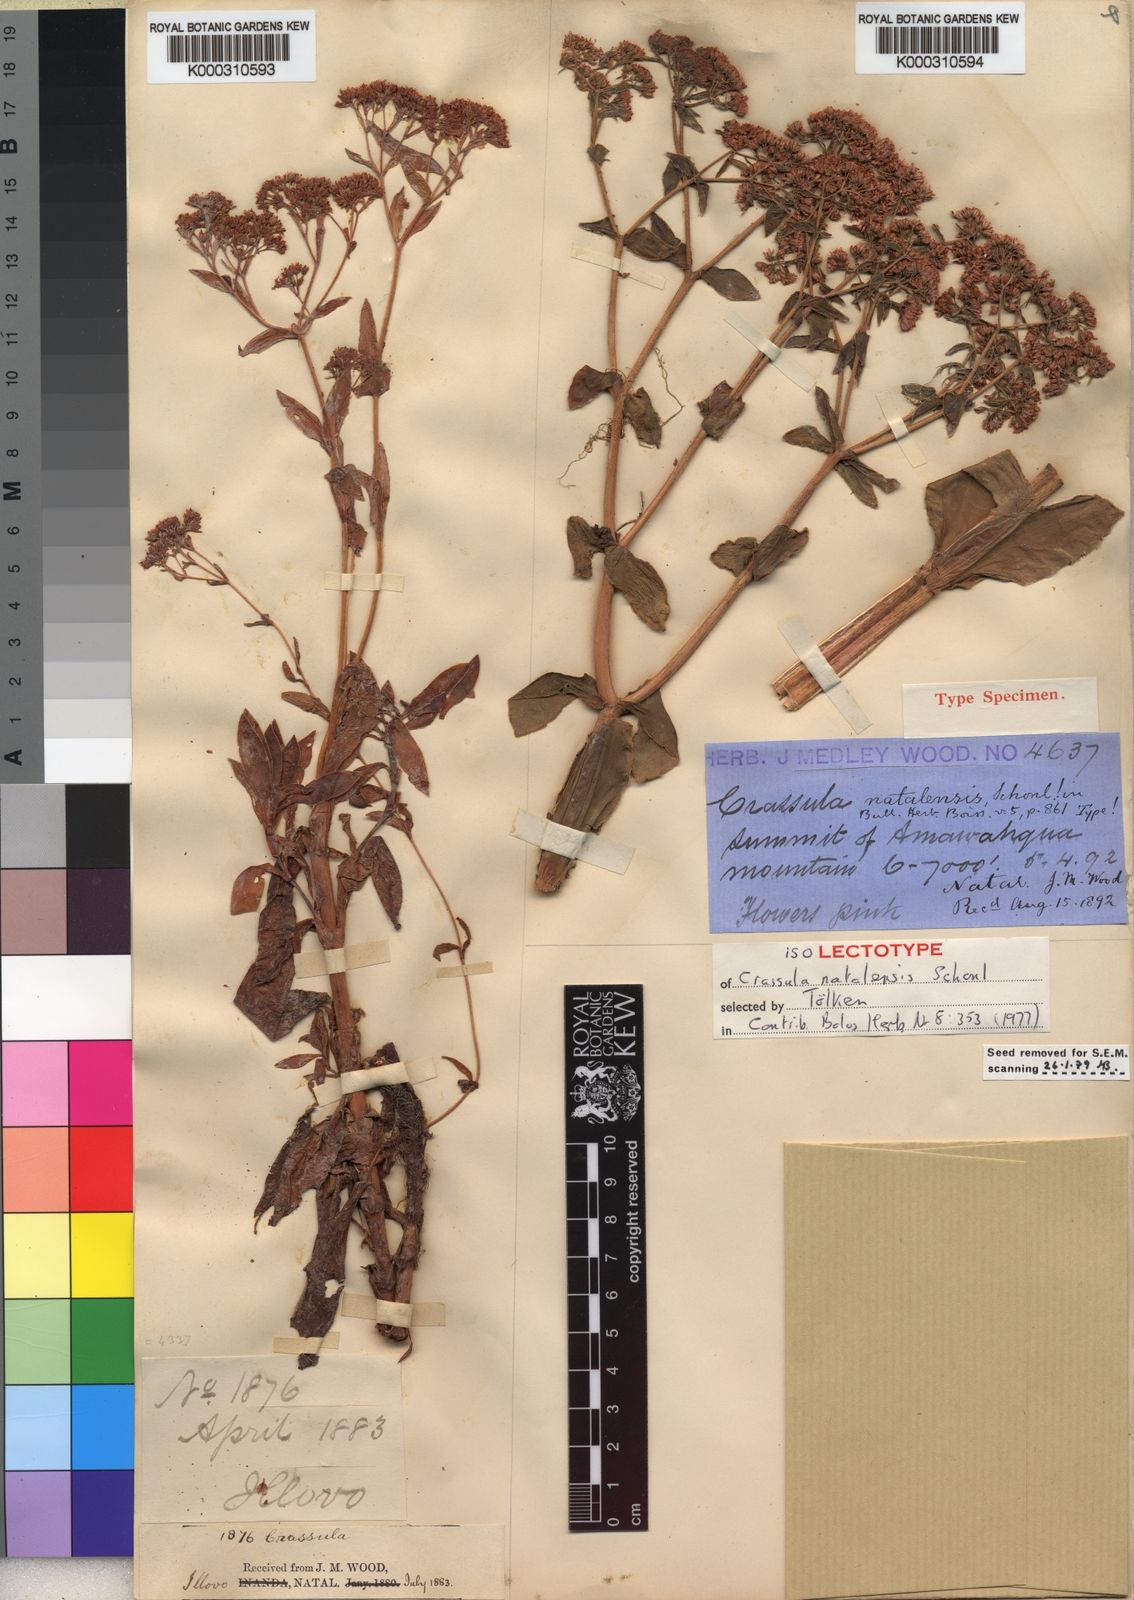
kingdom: Plantae
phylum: Tracheophyta
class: Magnoliopsida
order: Saxifragales
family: Crassulaceae
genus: Crassula
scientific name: Crassula
